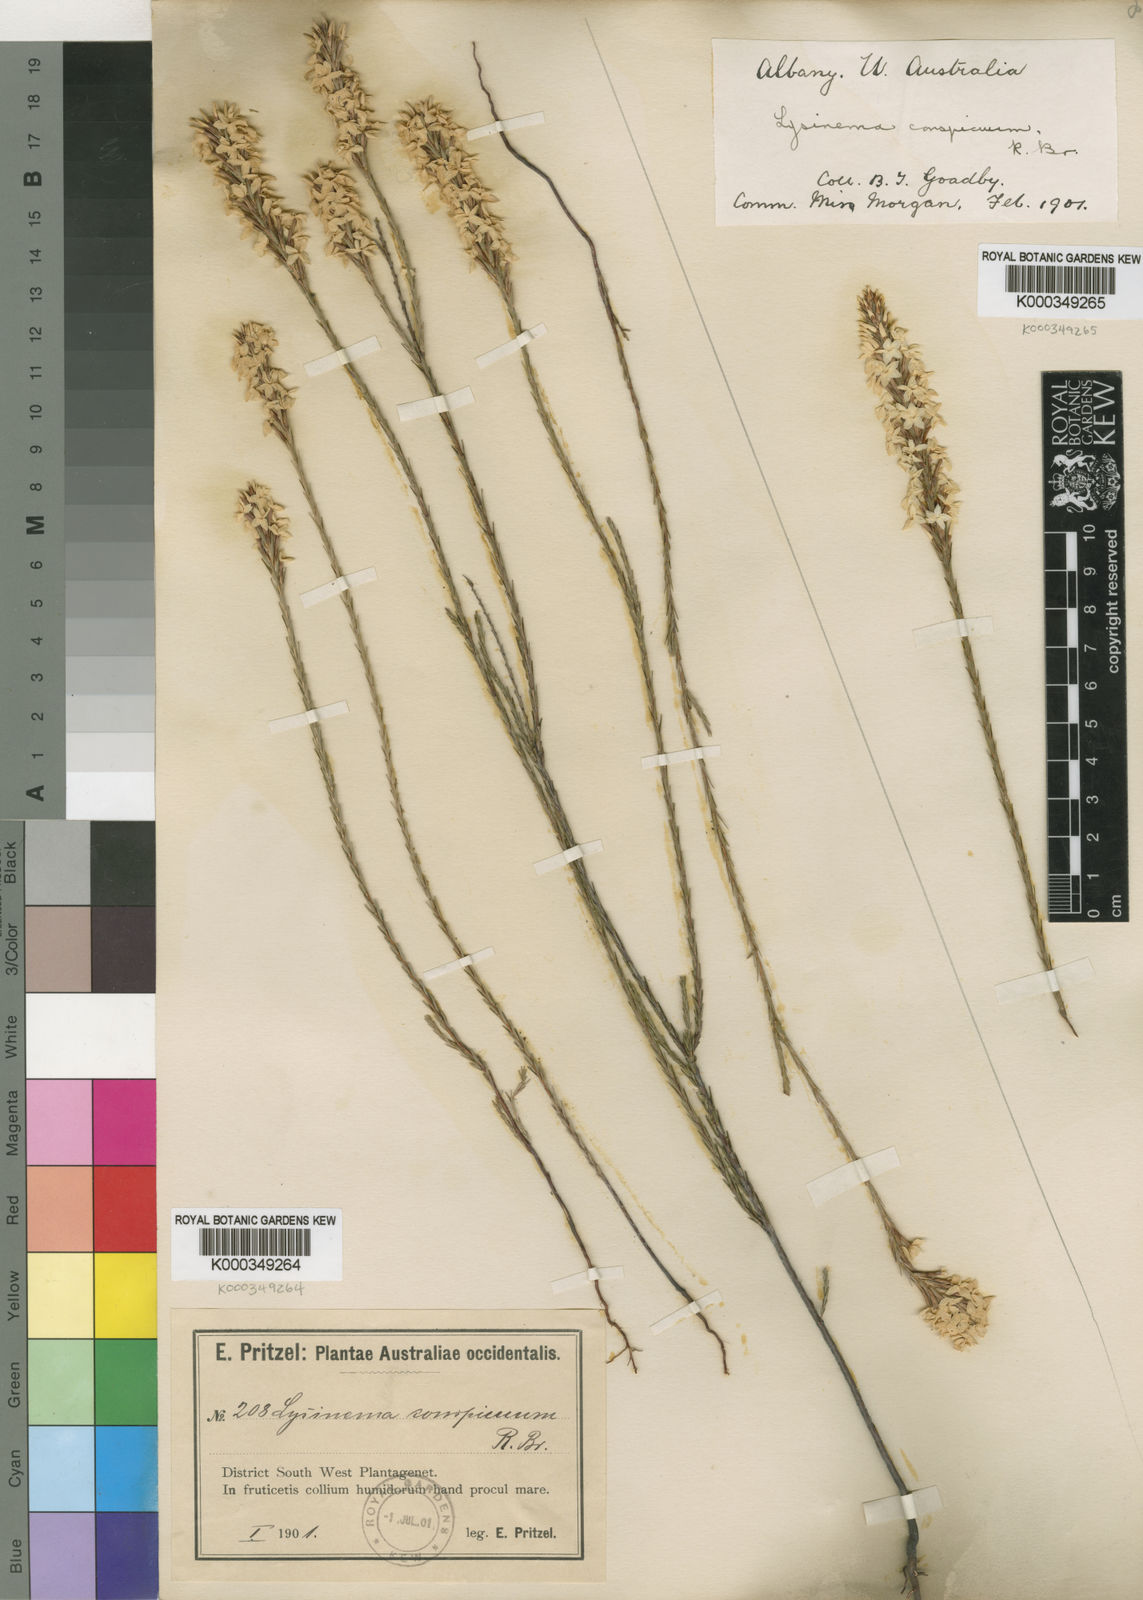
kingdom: Plantae
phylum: Tracheophyta
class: Magnoliopsida
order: Ericales
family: Ericaceae
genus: Lysinema
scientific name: Lysinema conspicuum
